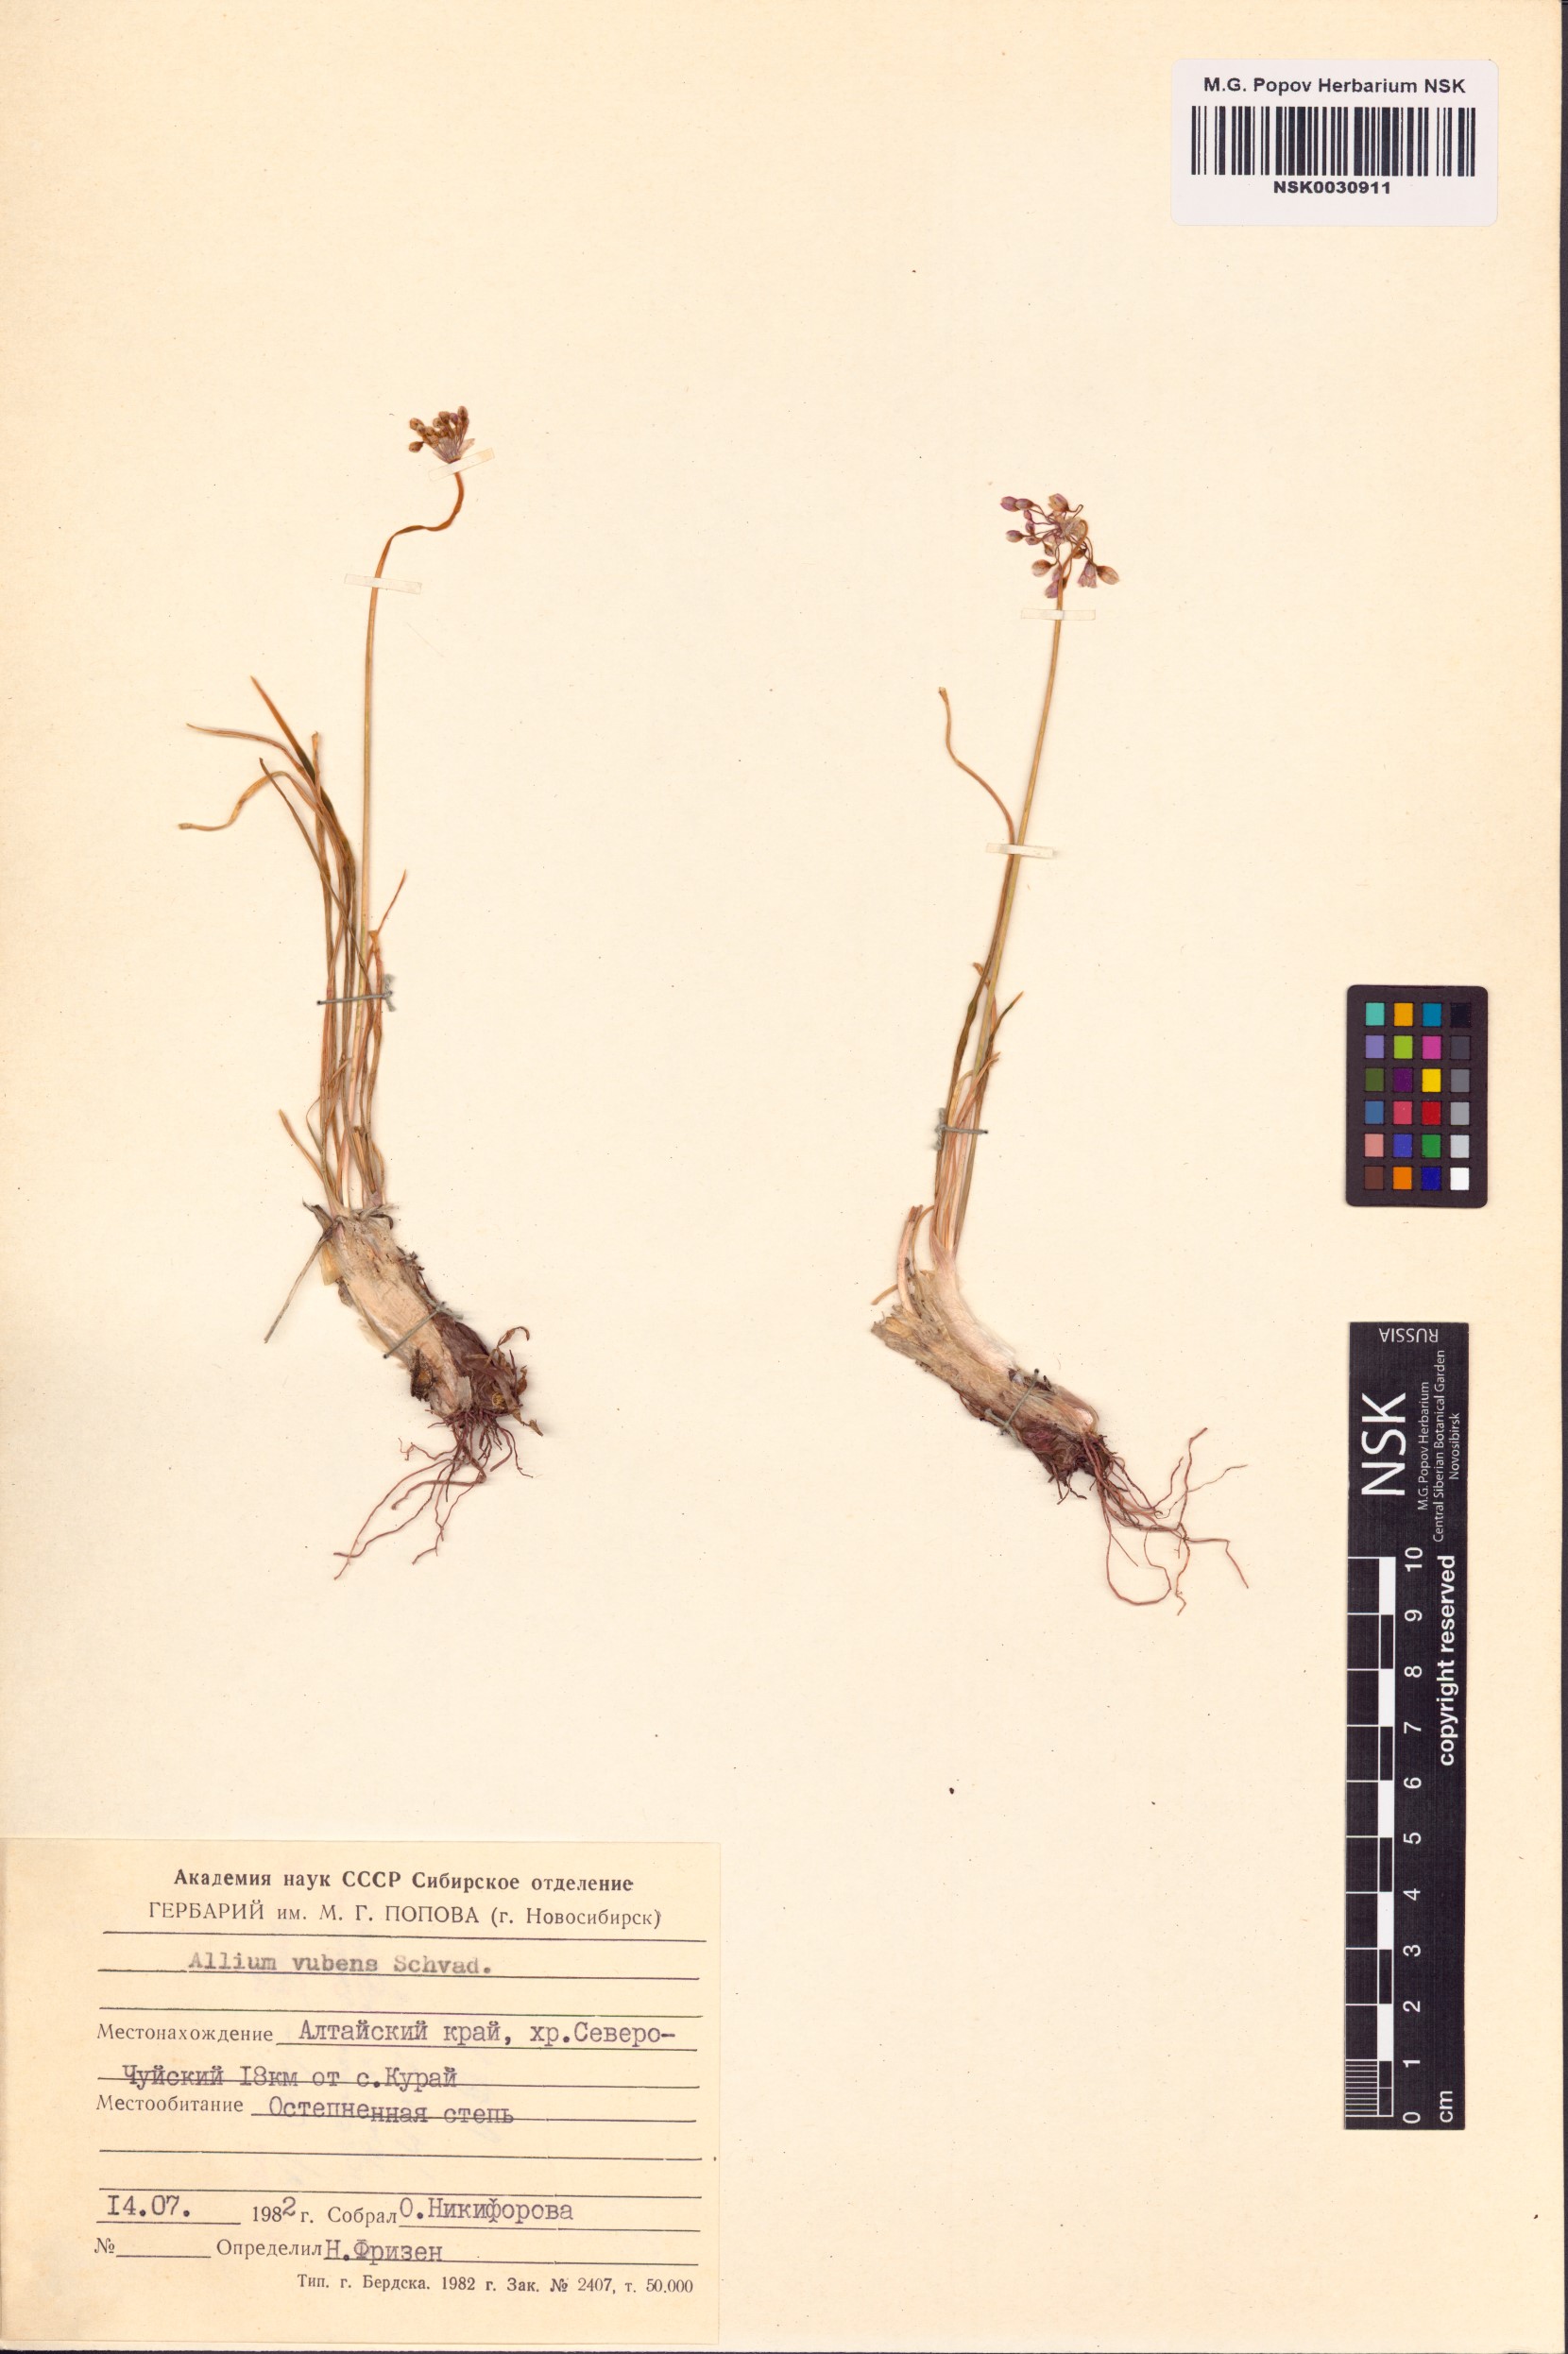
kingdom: Plantae
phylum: Tracheophyta
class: Liliopsida
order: Asparagales
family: Amaryllidaceae
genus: Allium
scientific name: Allium rubens
